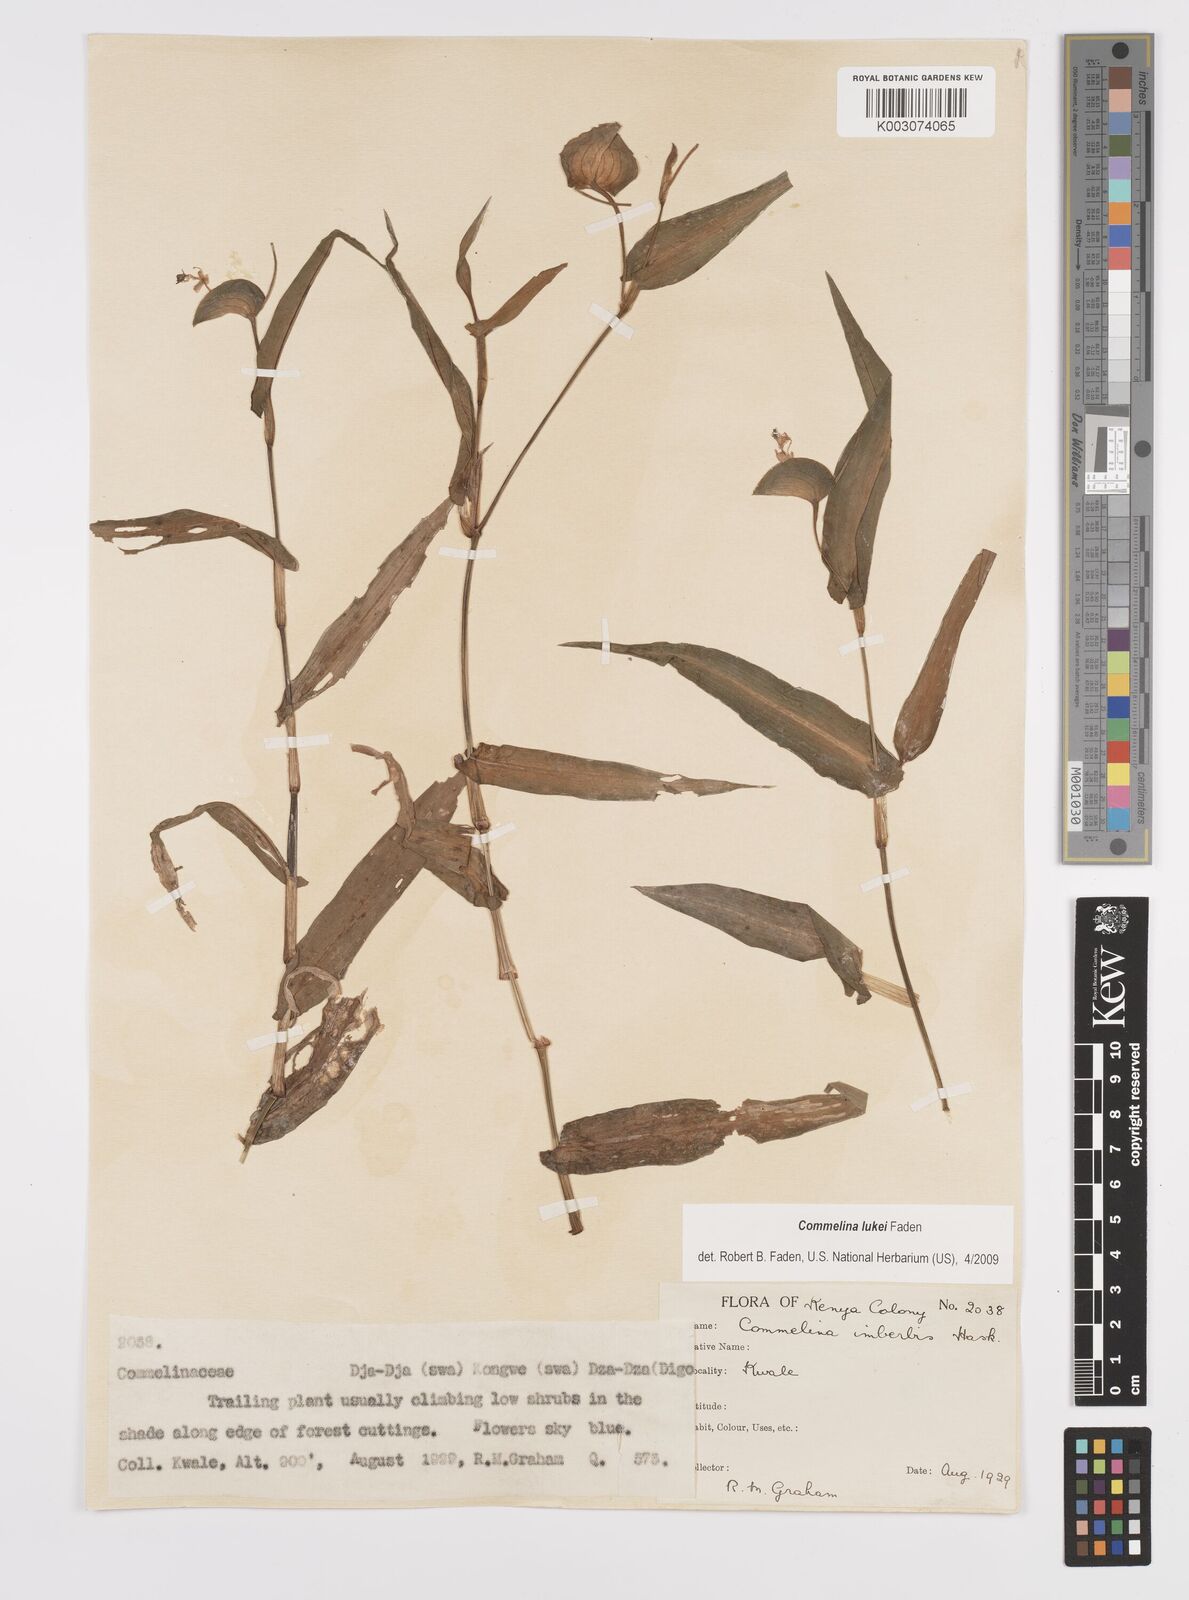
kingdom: Plantae
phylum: Tracheophyta
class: Liliopsida
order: Commelinales
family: Commelinaceae
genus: Commelina
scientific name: Commelina lukei
